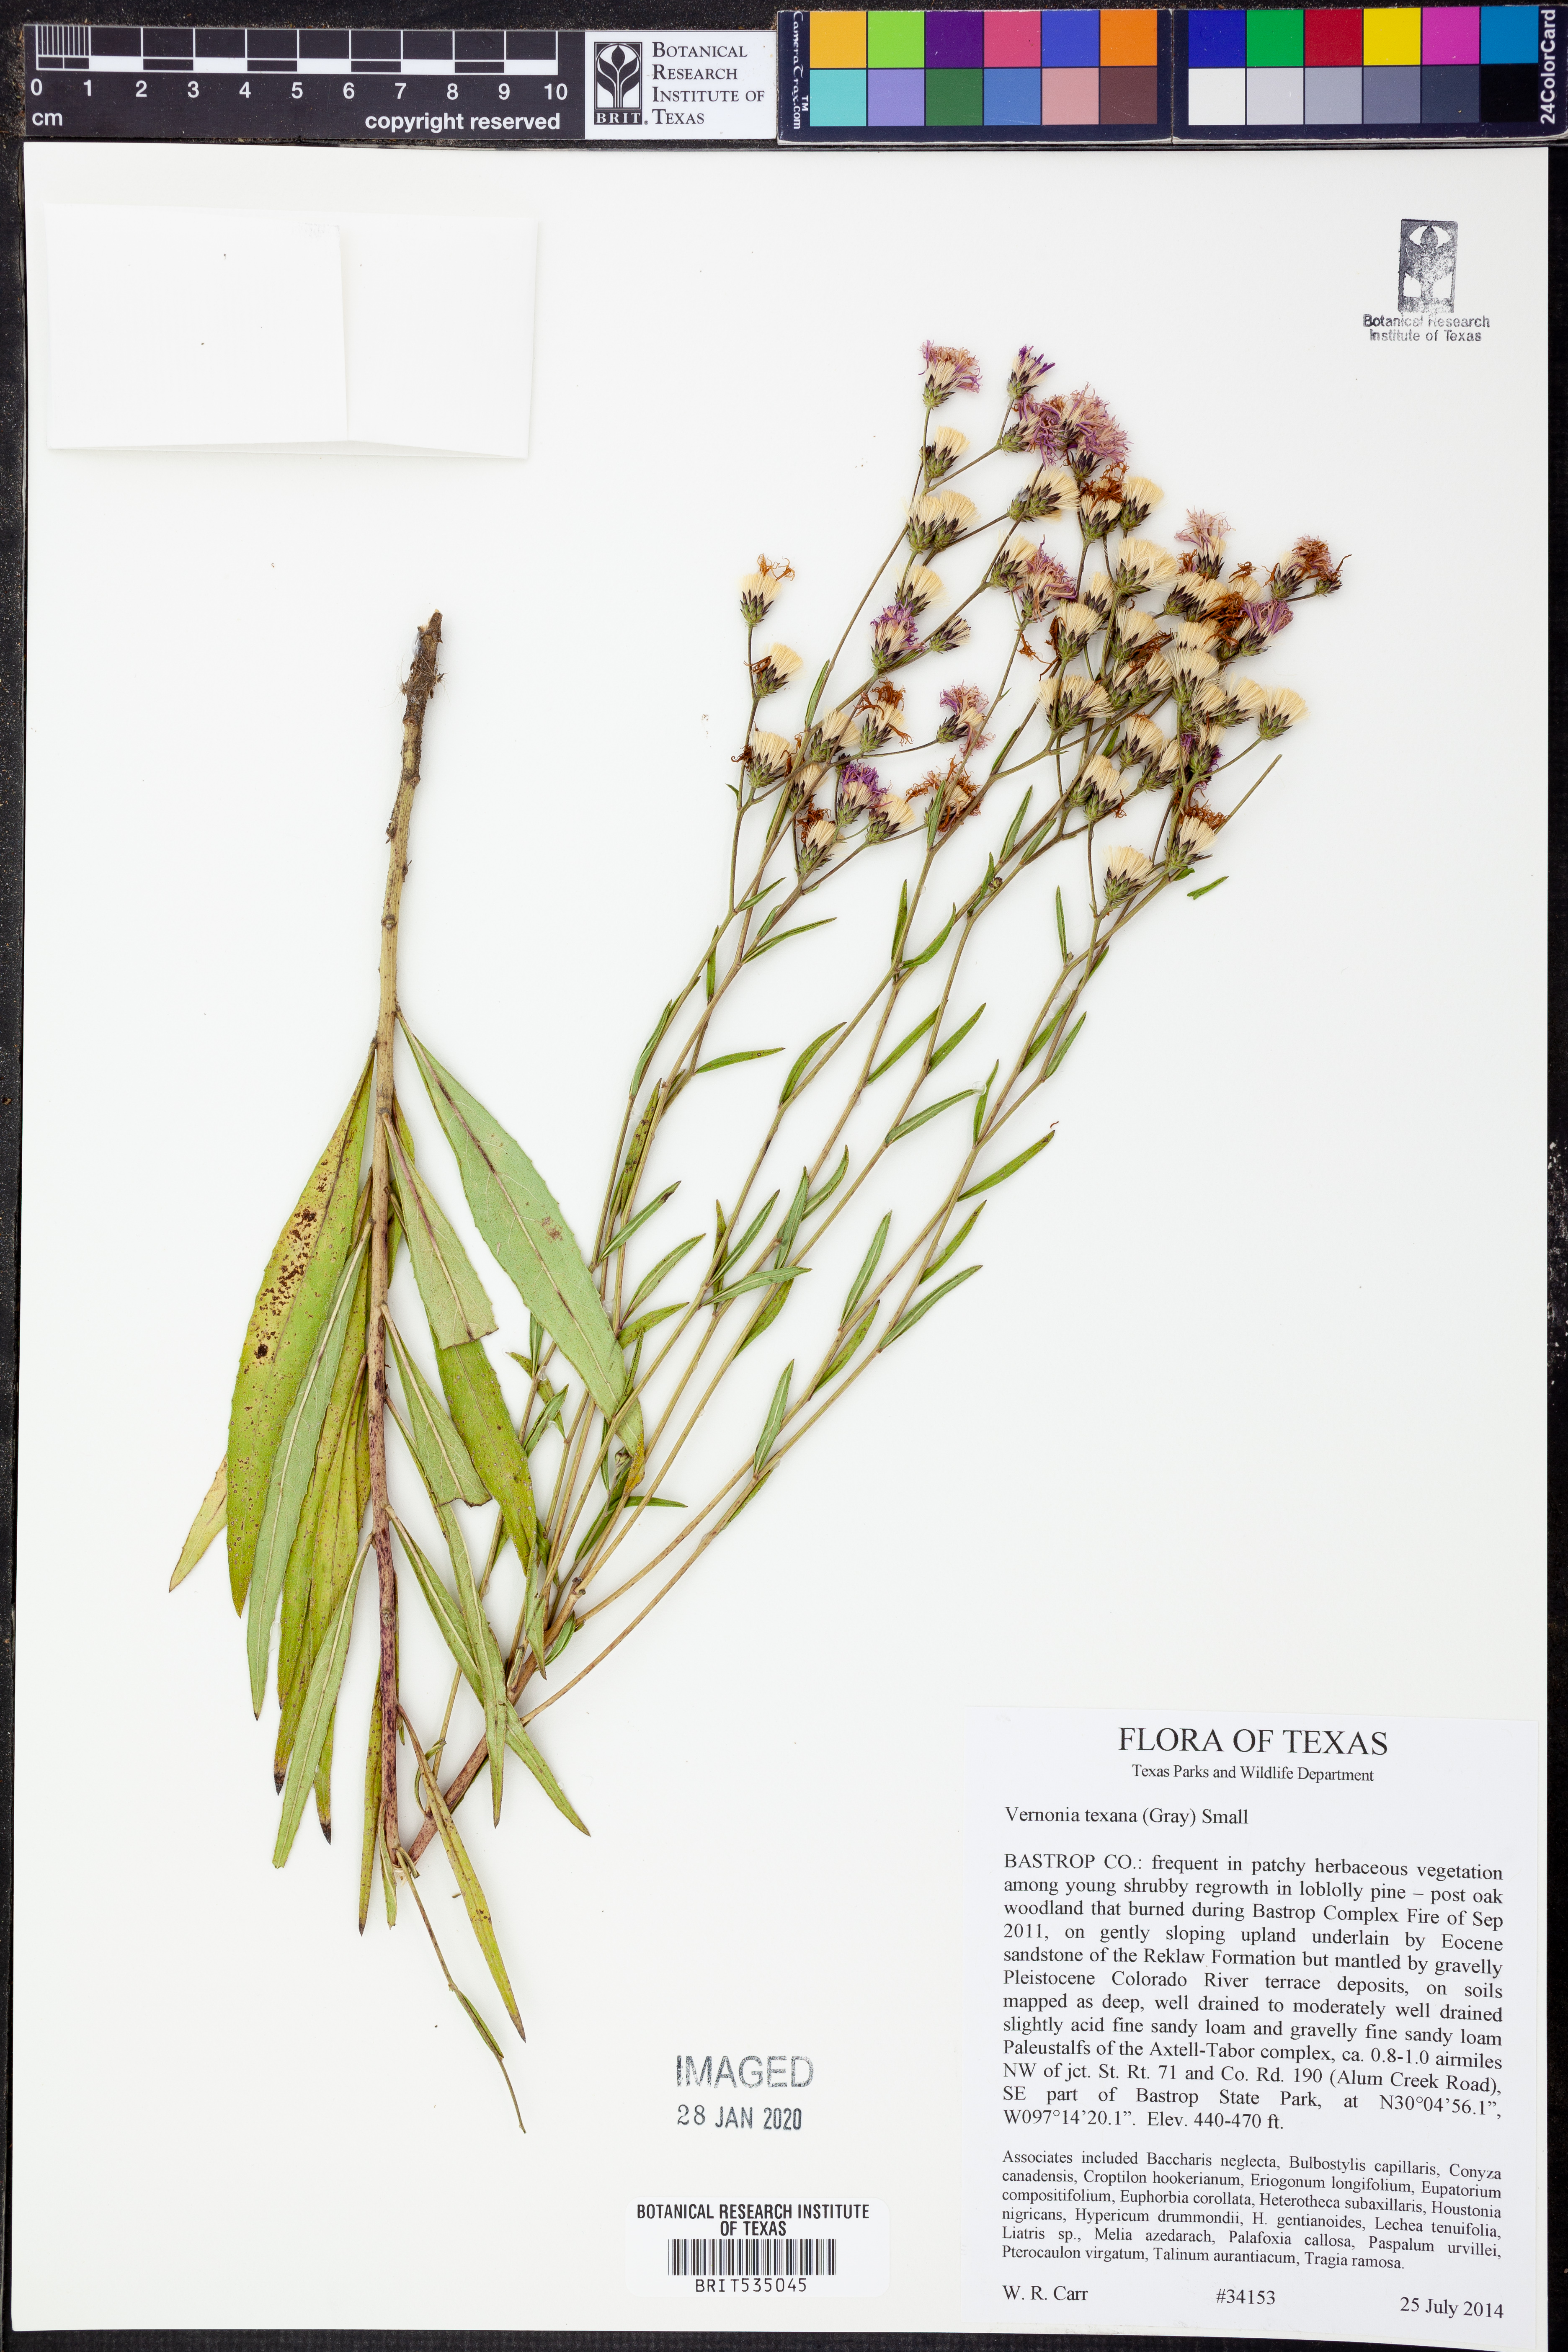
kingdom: Plantae
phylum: Tracheophyta
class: Magnoliopsida
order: Asterales
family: Asteraceae
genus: Vernonia
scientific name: Vernonia texana
